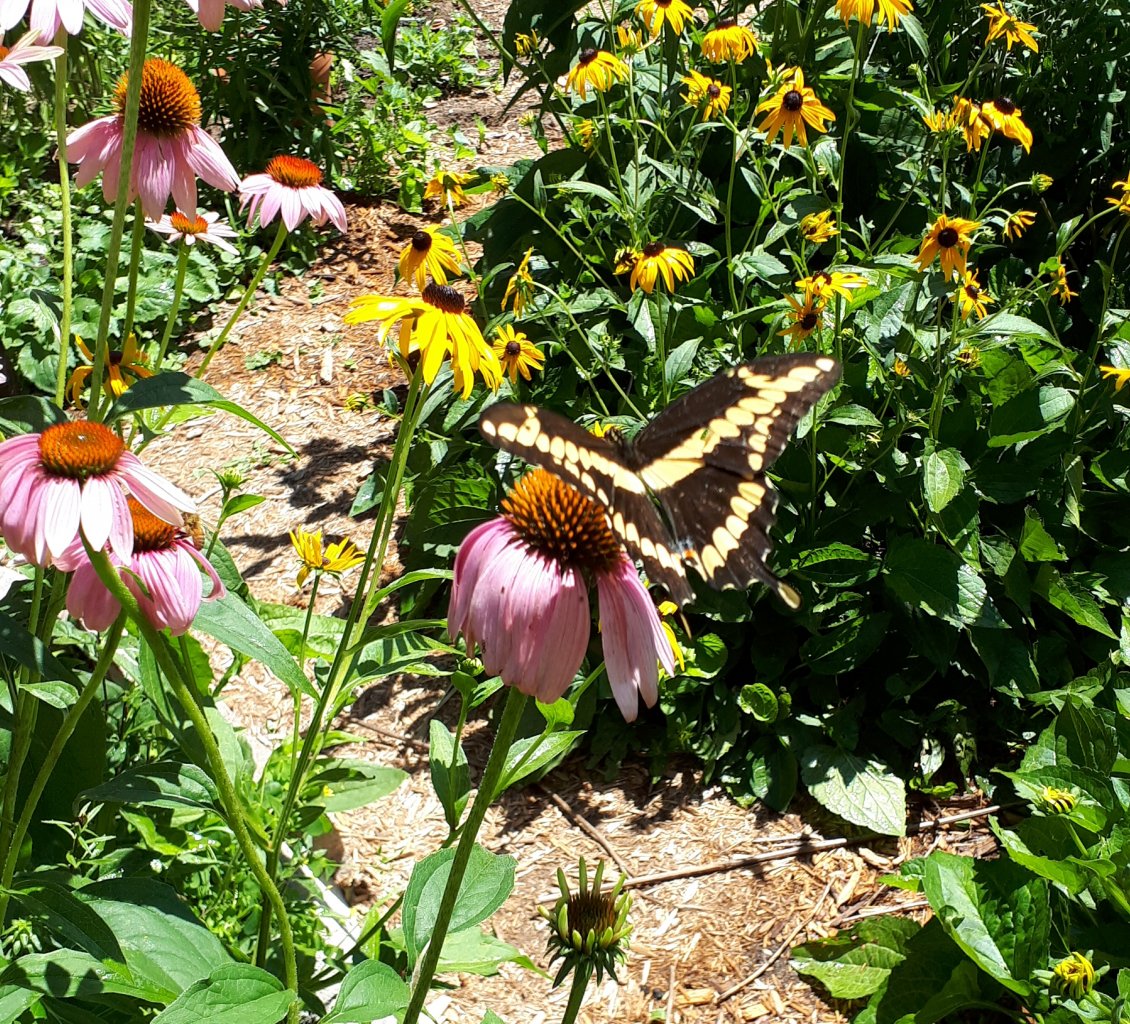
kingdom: Animalia
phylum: Arthropoda
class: Insecta
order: Lepidoptera
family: Papilionidae
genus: Papilio
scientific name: Papilio cresphontes
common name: Eastern Giant Swallowtail
